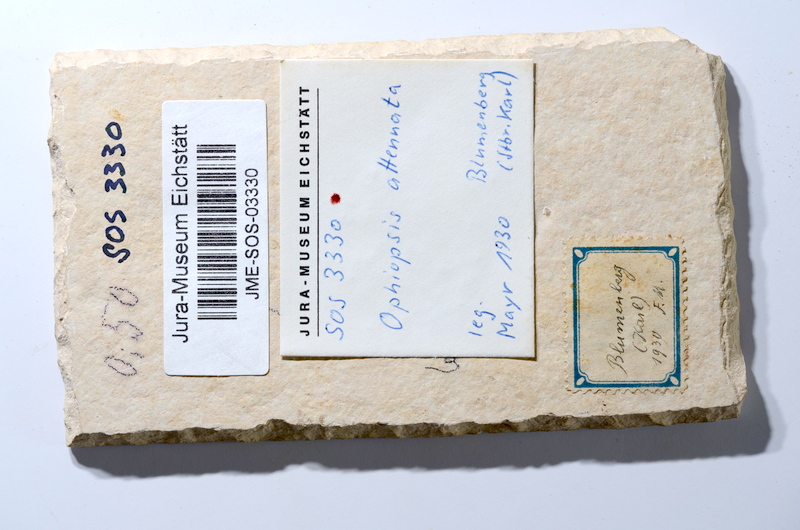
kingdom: Animalia
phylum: Chordata
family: Ophiopsiellidae
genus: Ophiopsiella
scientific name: Ophiopsiella attenuata
